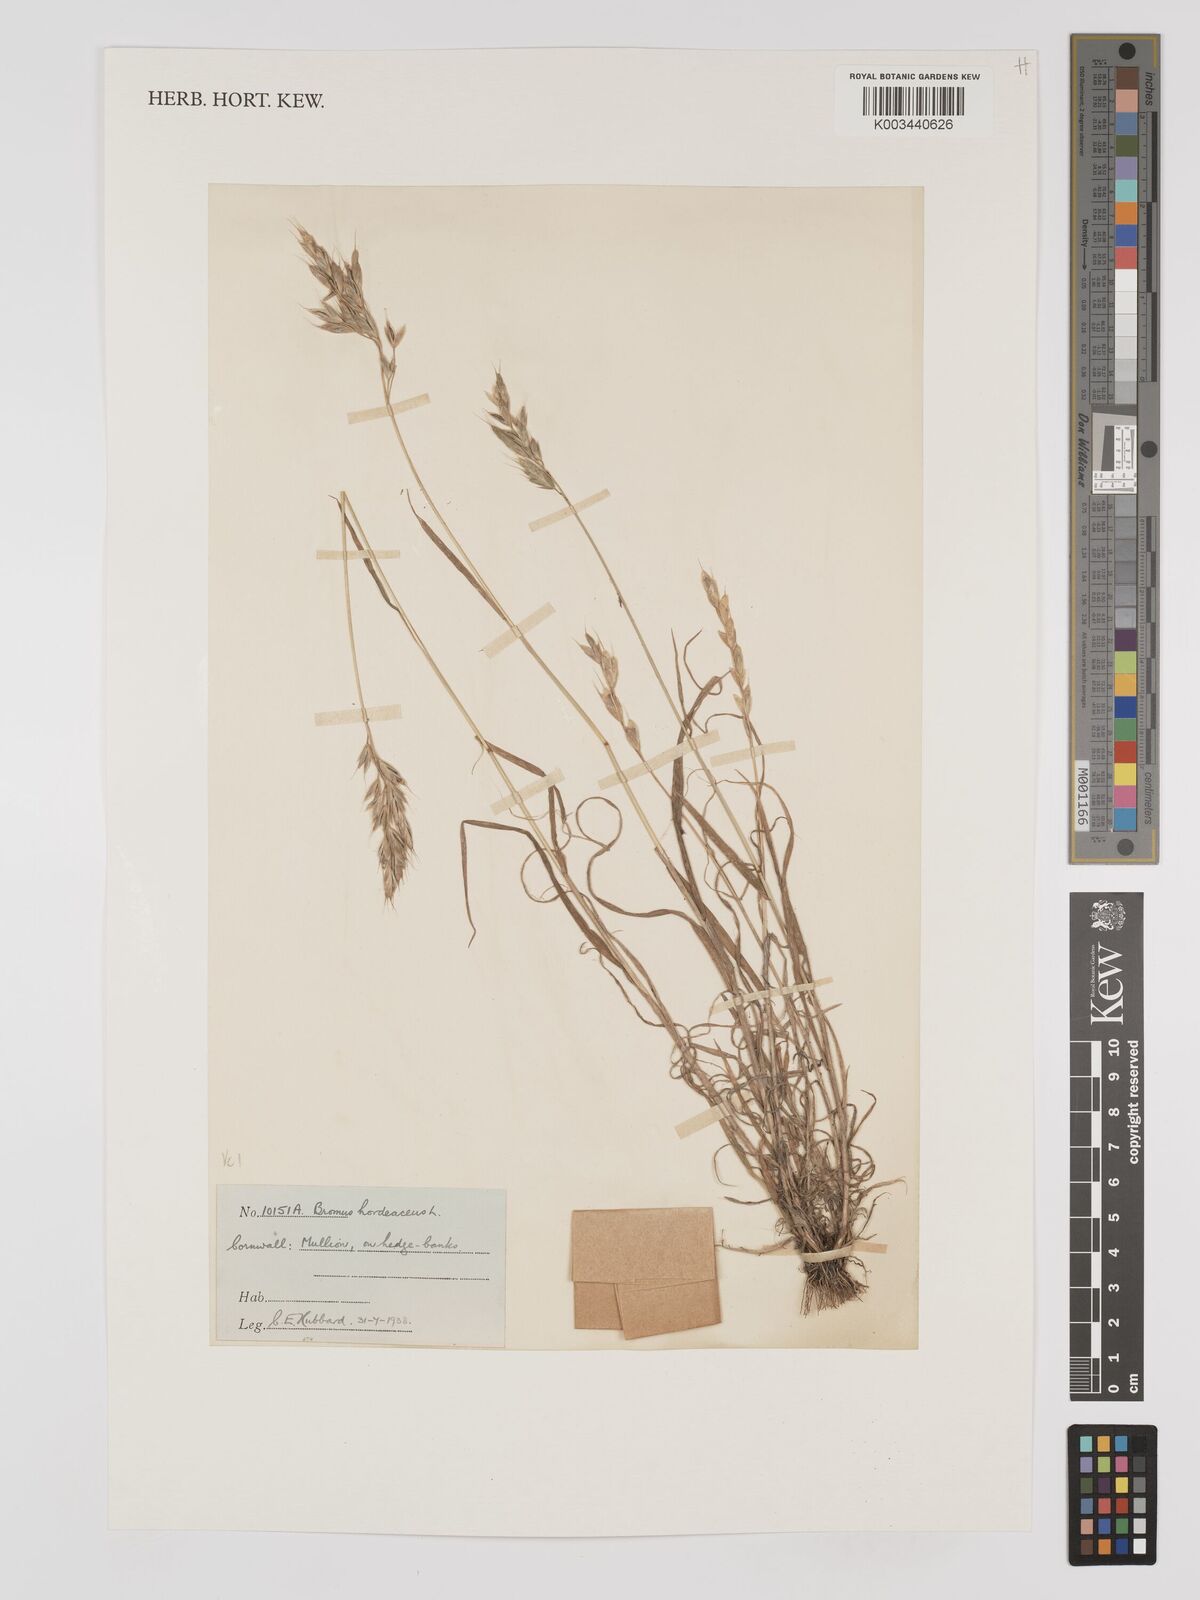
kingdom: Plantae
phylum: Tracheophyta
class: Liliopsida
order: Poales
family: Poaceae
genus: Bromus
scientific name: Bromus hordeaceus
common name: Soft brome
